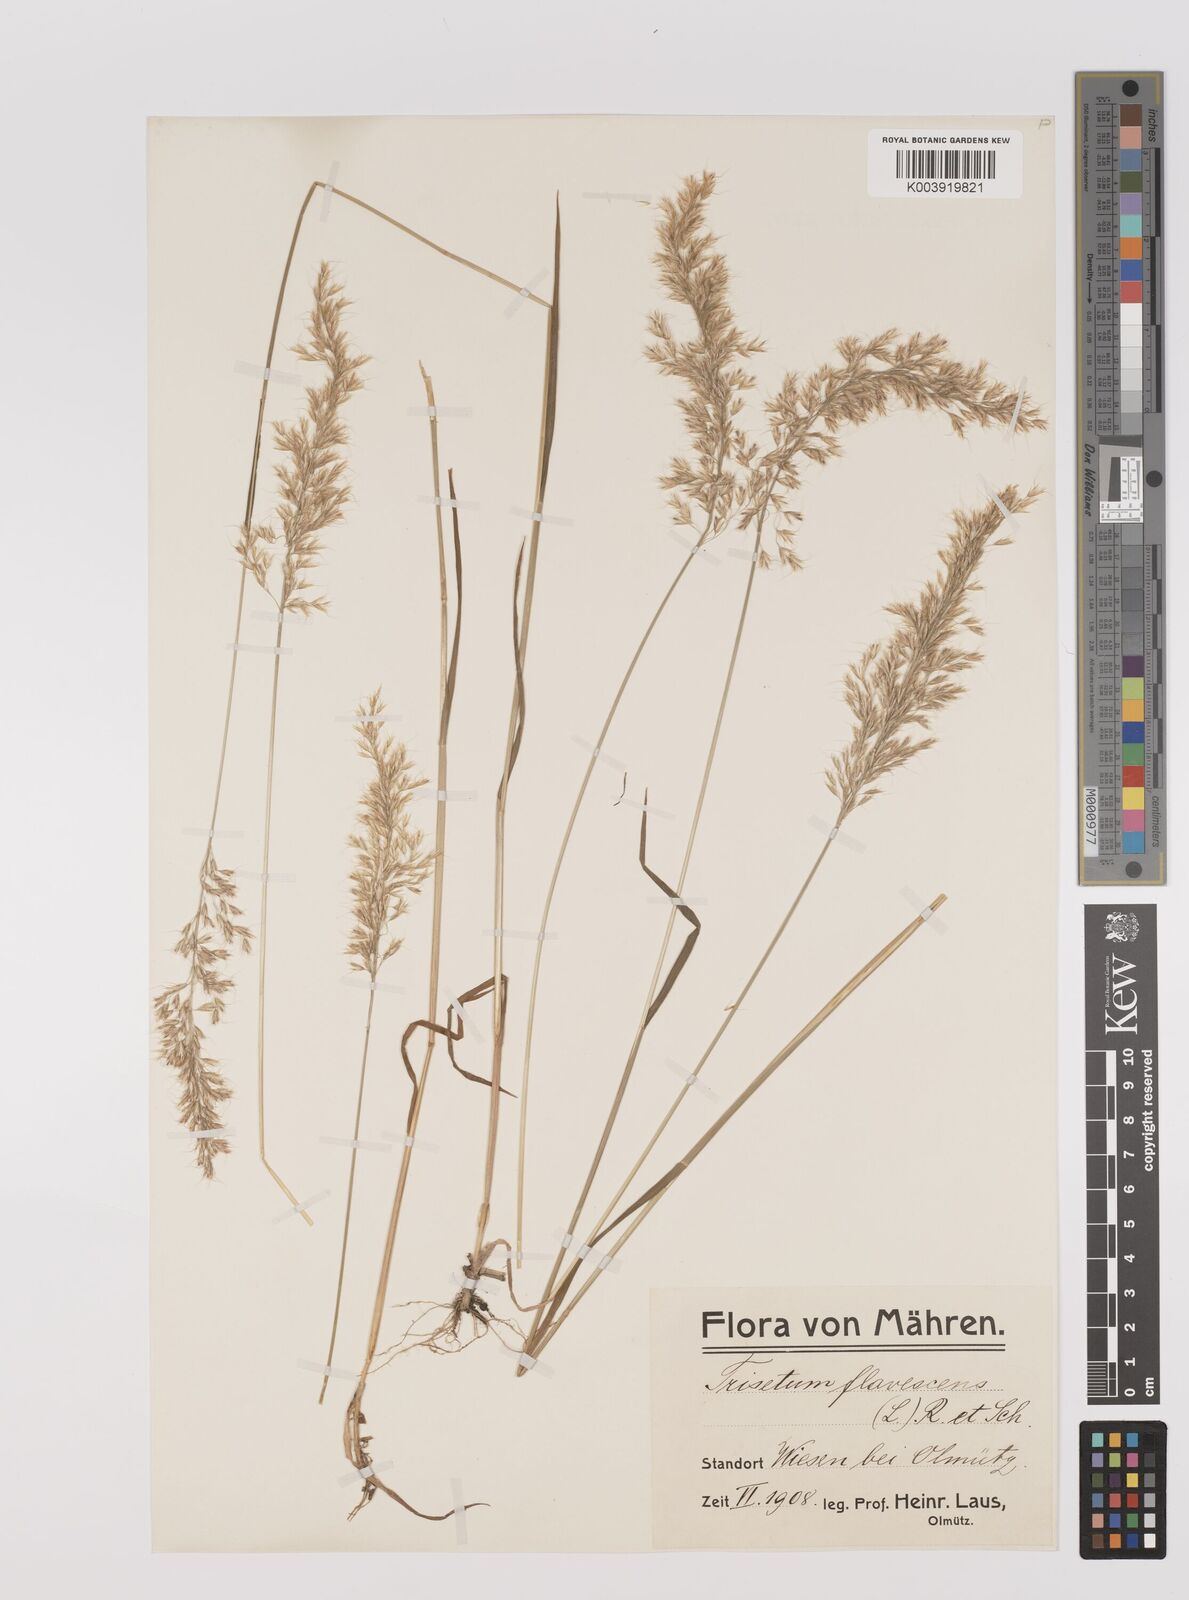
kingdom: Plantae
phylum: Tracheophyta
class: Liliopsida
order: Poales
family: Poaceae
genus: Trisetum
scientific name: Trisetum flavescens
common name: Yellow oat-grass
